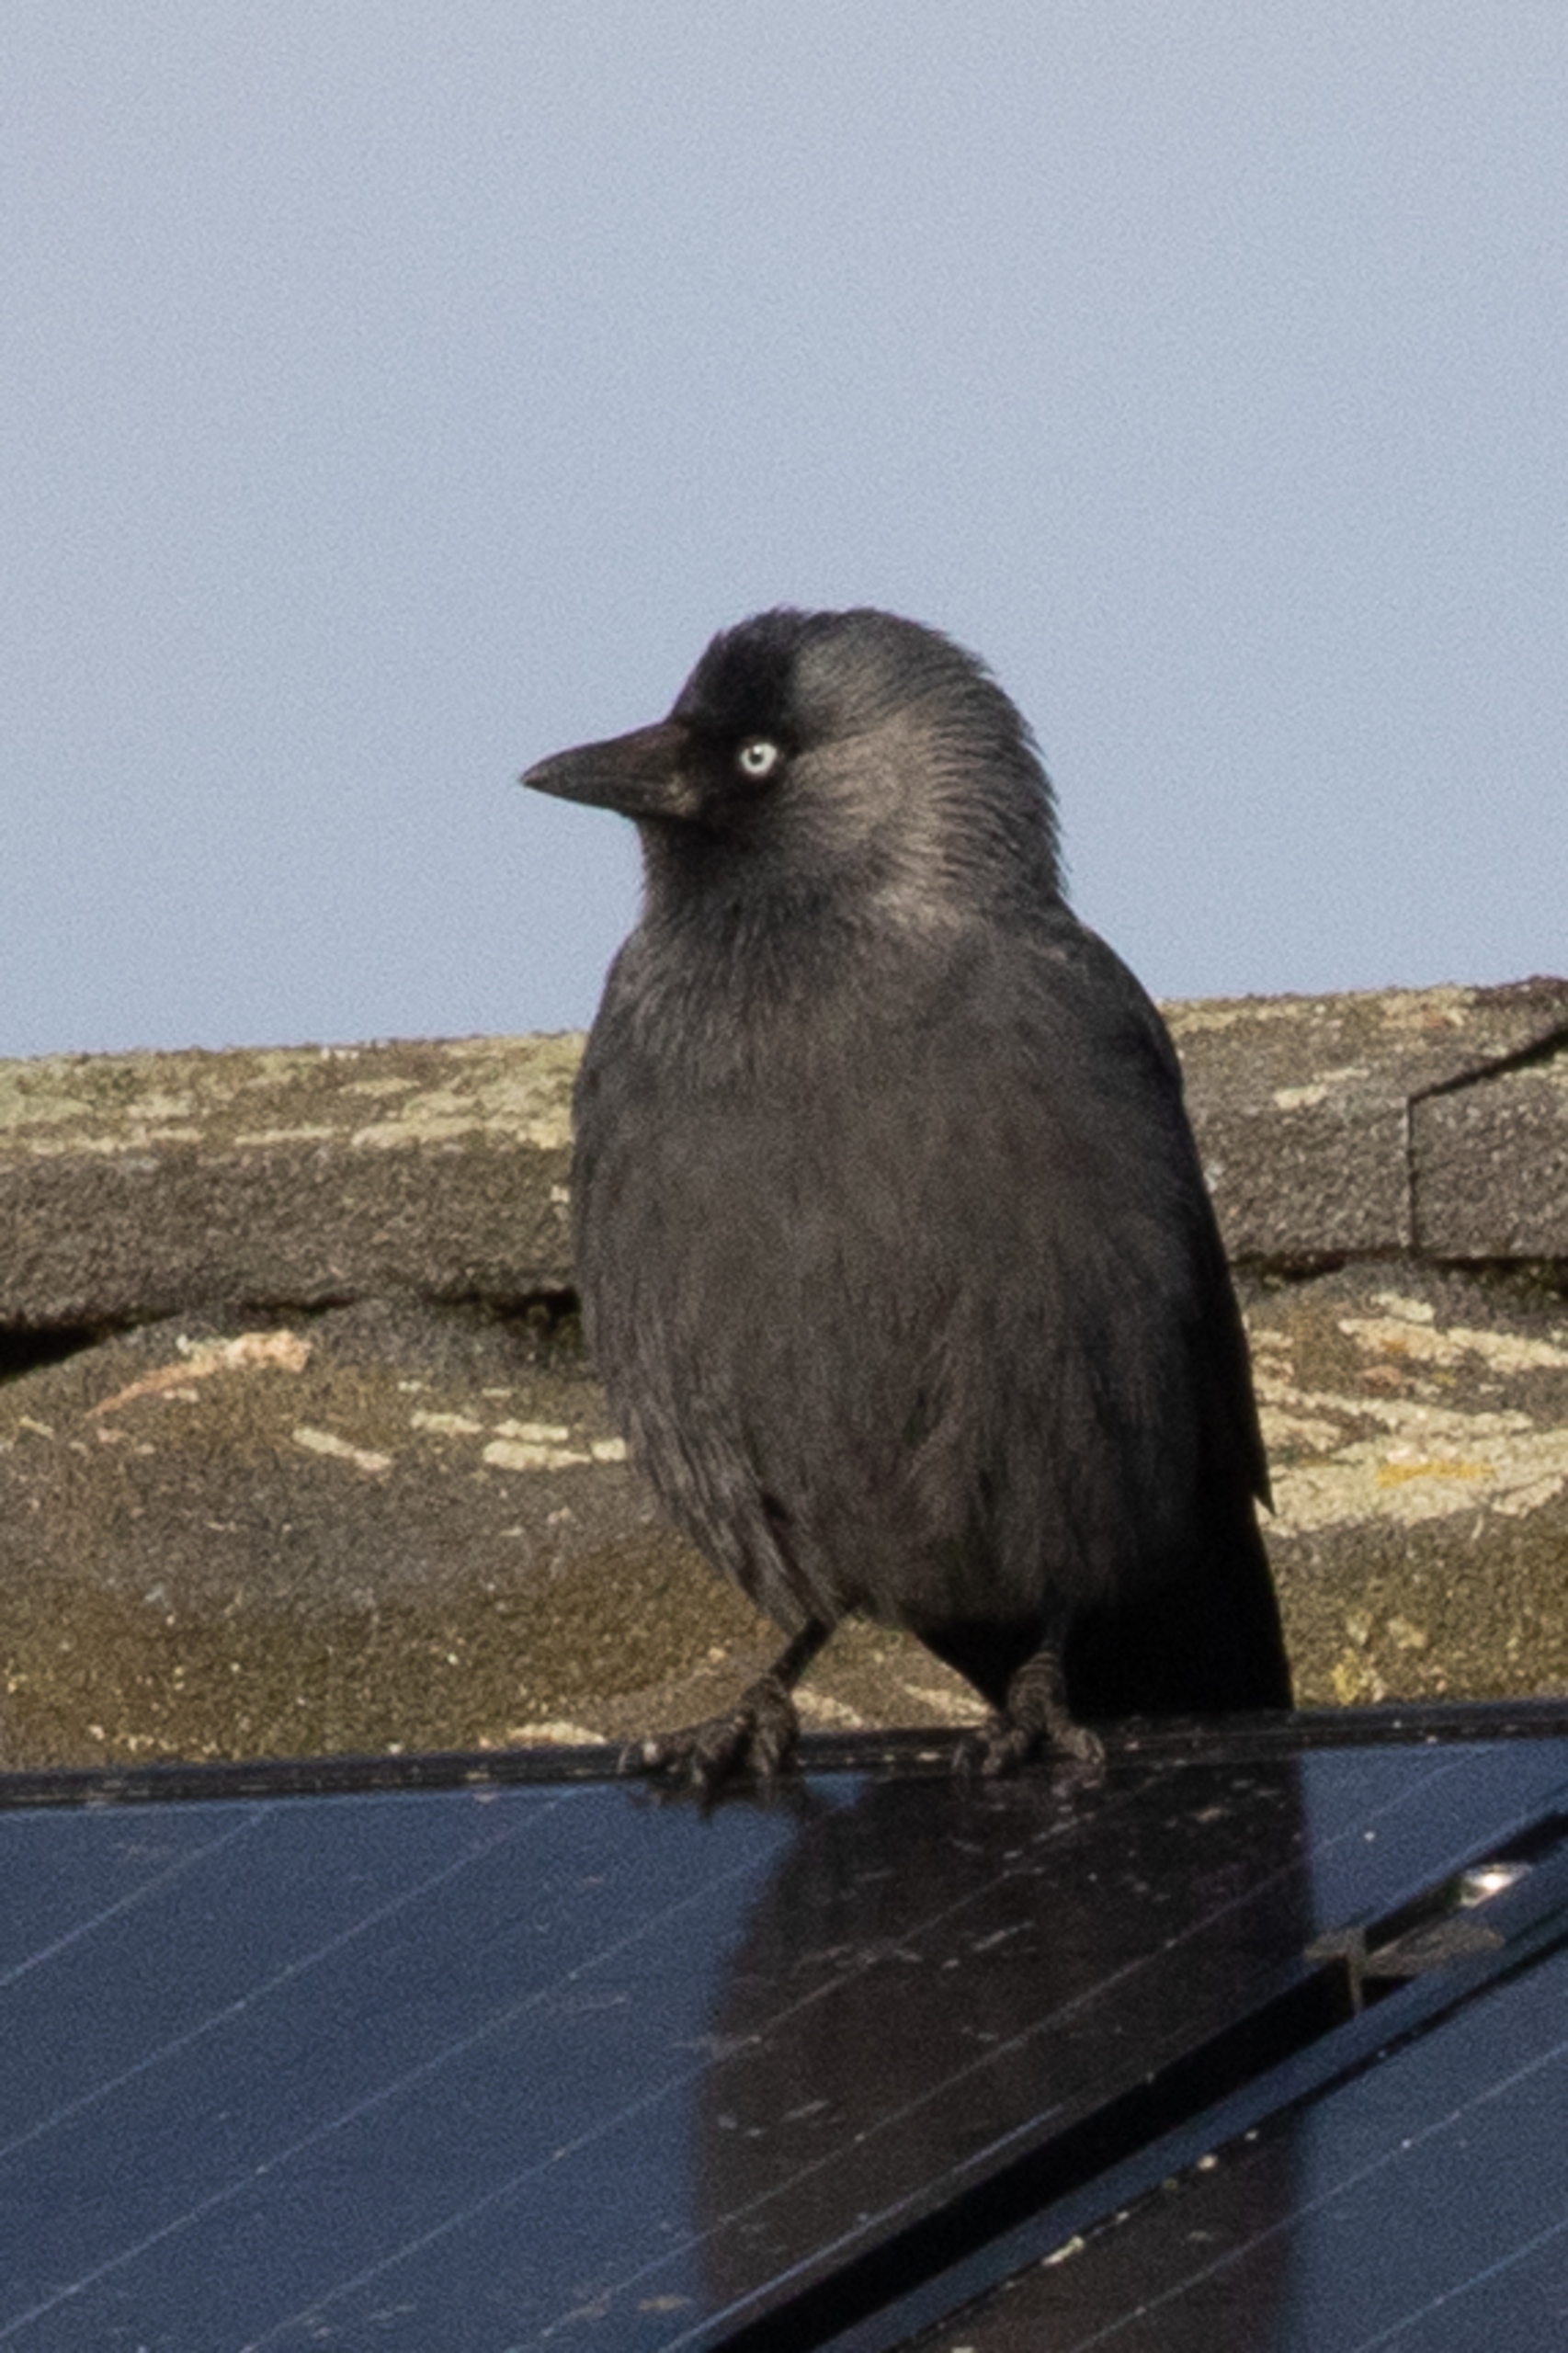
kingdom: Animalia
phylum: Chordata
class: Aves
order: Passeriformes
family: Corvidae
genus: Coloeus
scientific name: Coloeus monedula
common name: Allike
